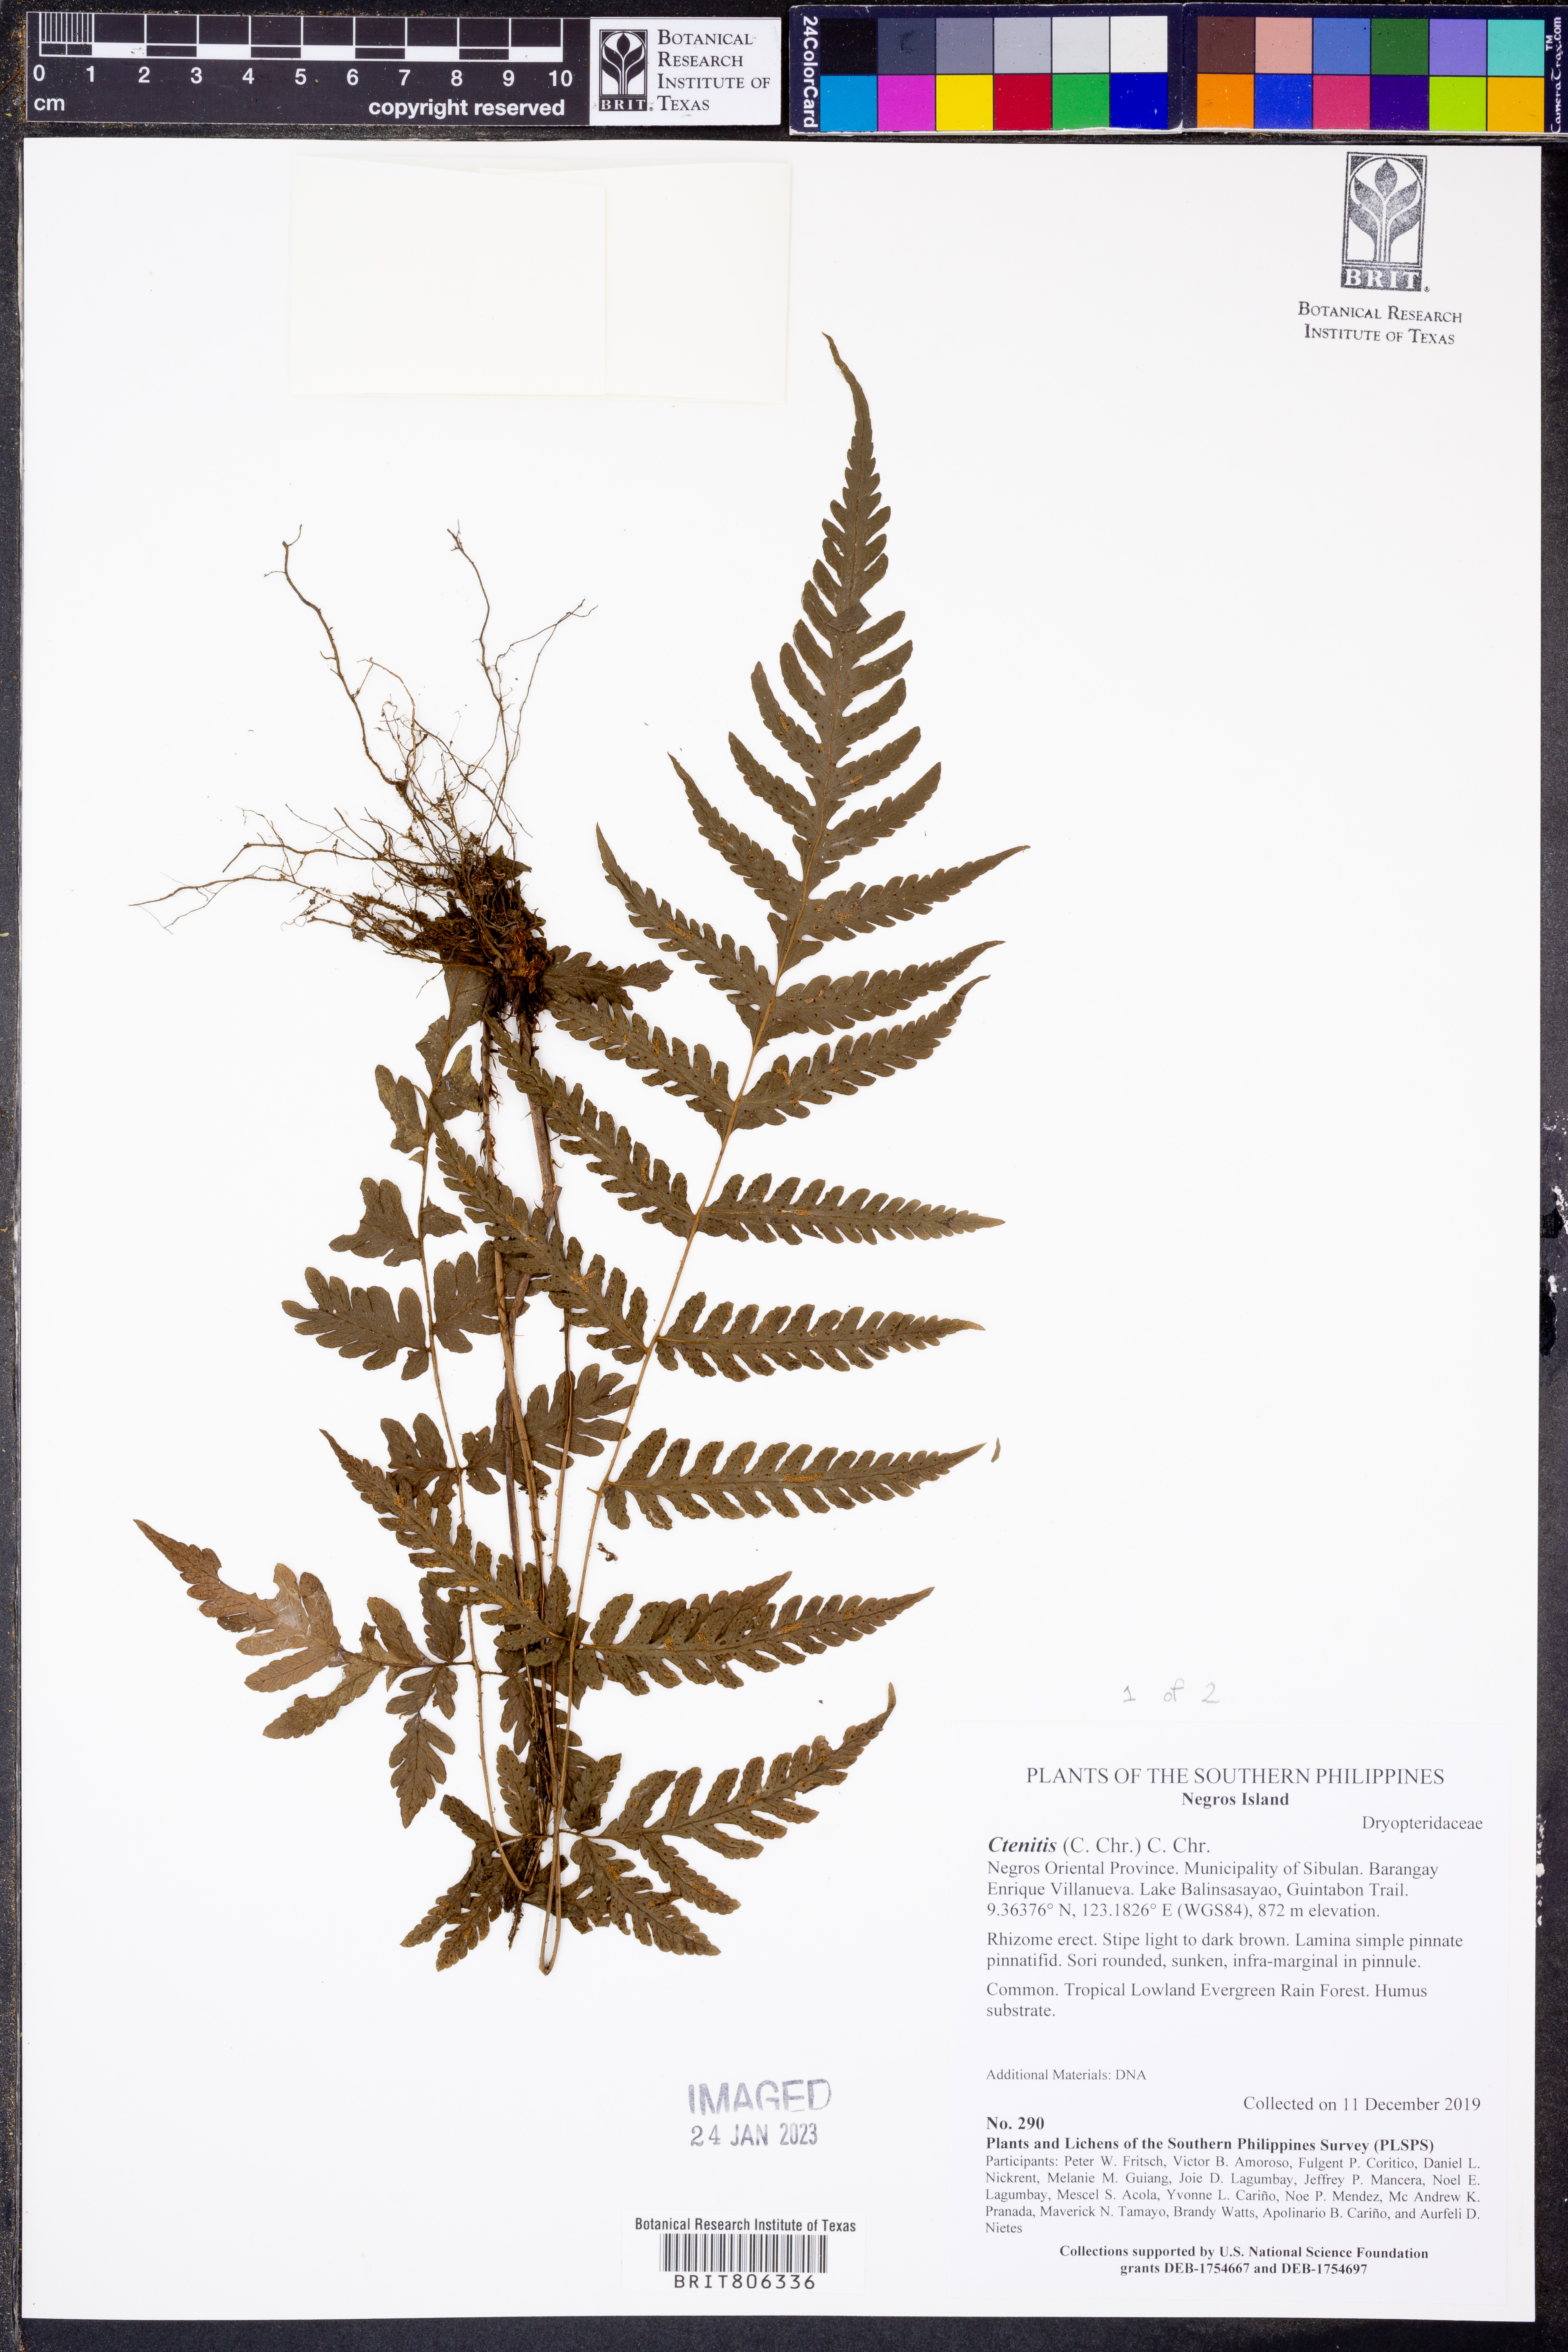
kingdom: Plantae
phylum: Tracheophyta
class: Polypodiopsida
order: Polypodiales
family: Dryopteridaceae
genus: Ctenitis
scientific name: Ctenitis
